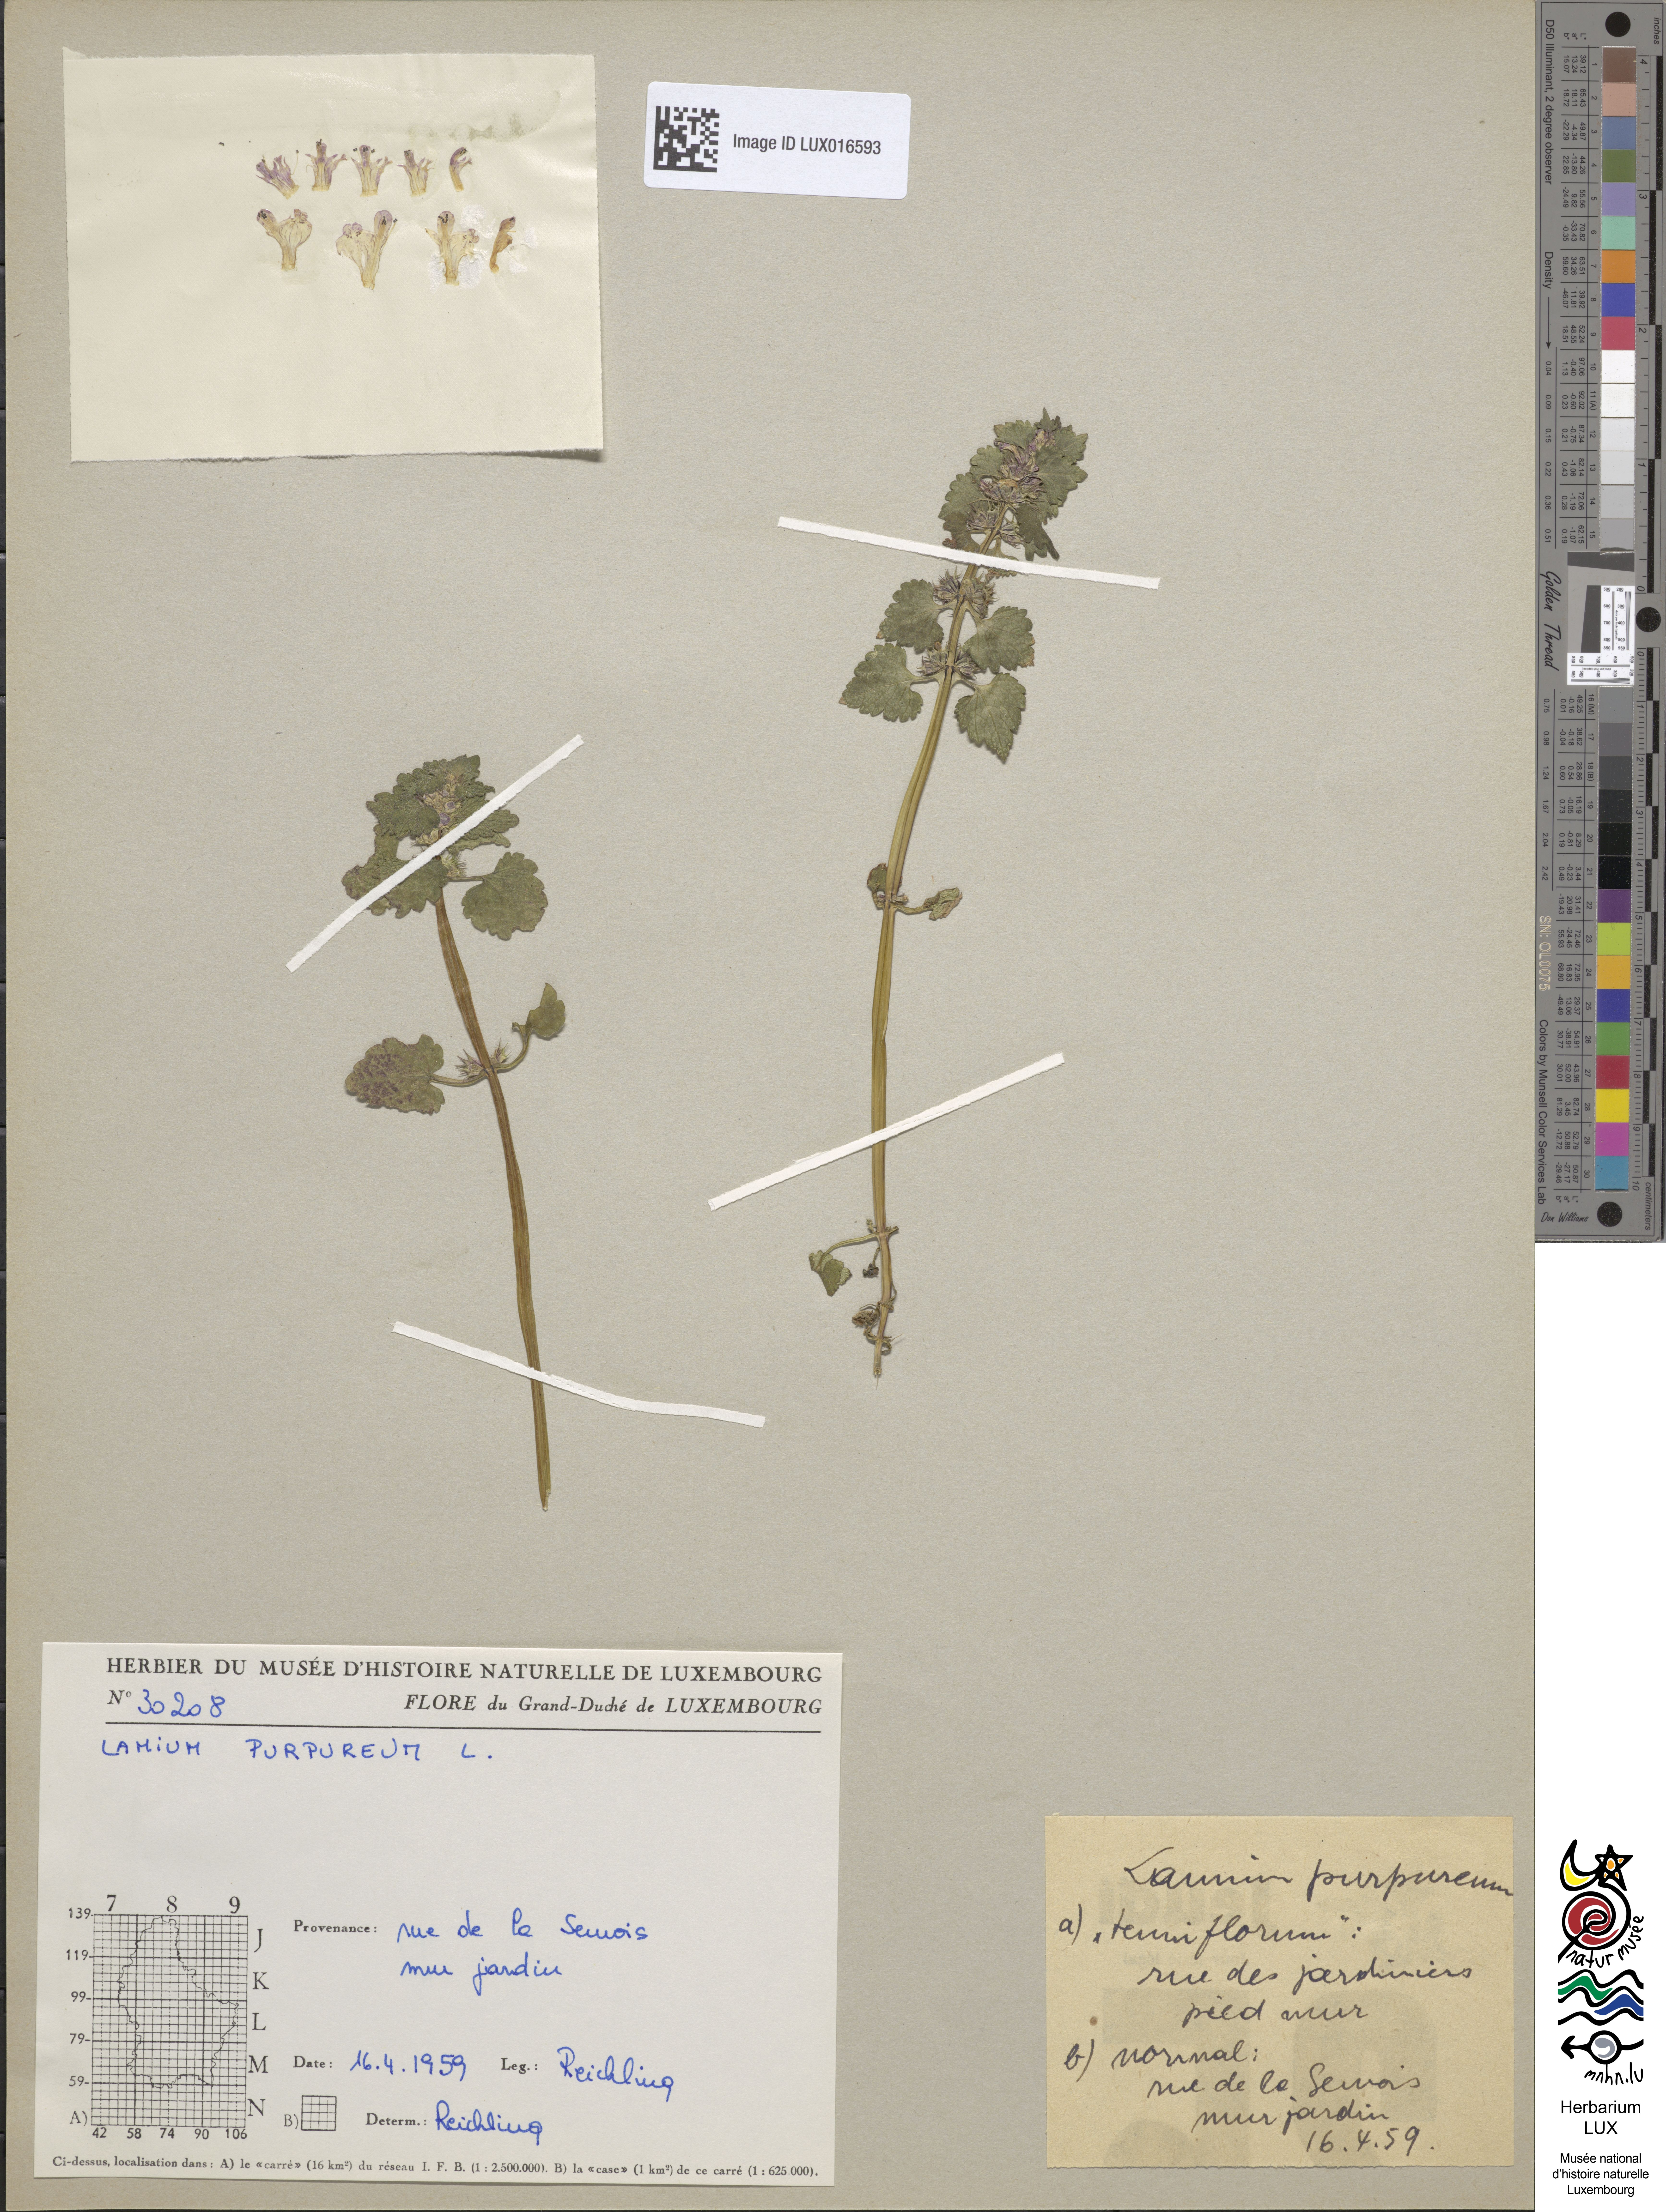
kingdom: Plantae
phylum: Tracheophyta
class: Magnoliopsida
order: Lamiales
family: Lamiaceae
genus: Lamium
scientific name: Lamium purpureum
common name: Red dead-nettle
